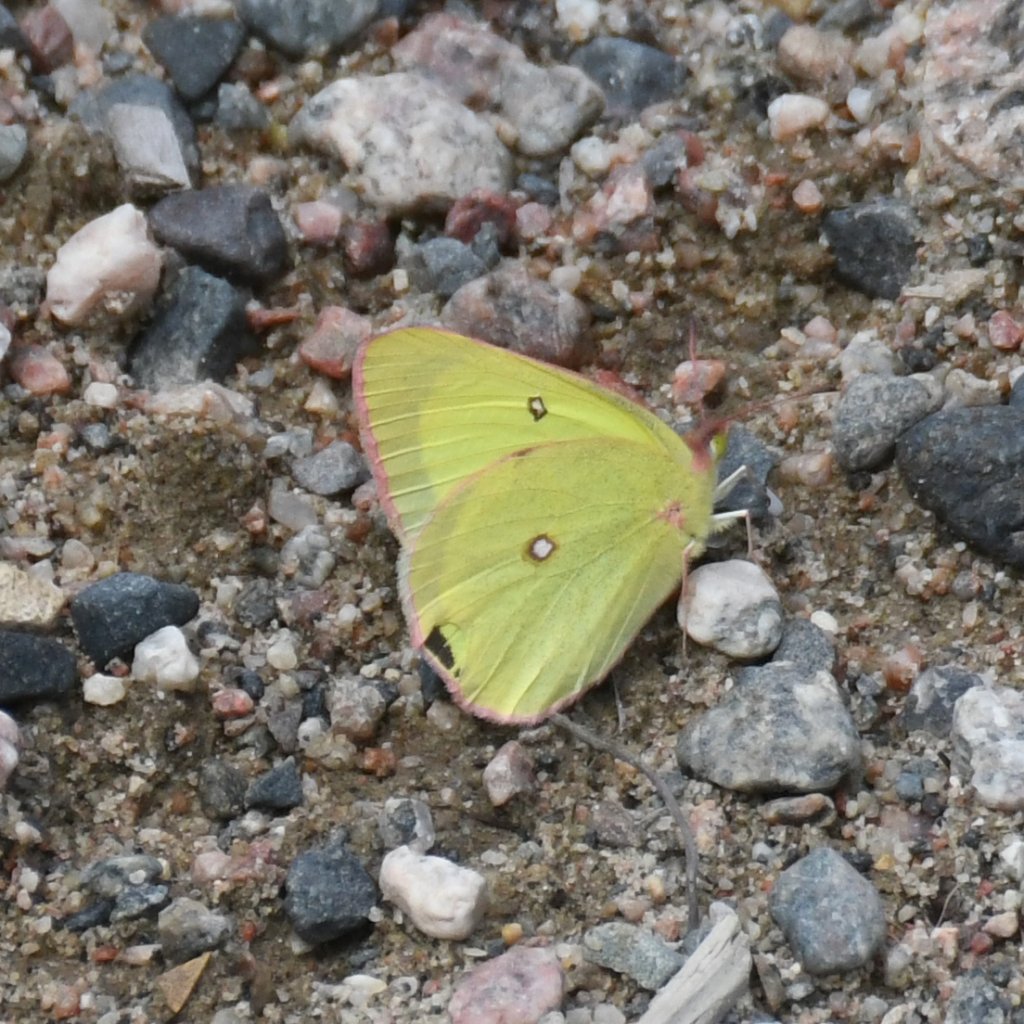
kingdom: Animalia
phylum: Arthropoda
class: Insecta
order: Lepidoptera
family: Pieridae
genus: Colias
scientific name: Colias interior
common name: Pink-edged Sulphur
